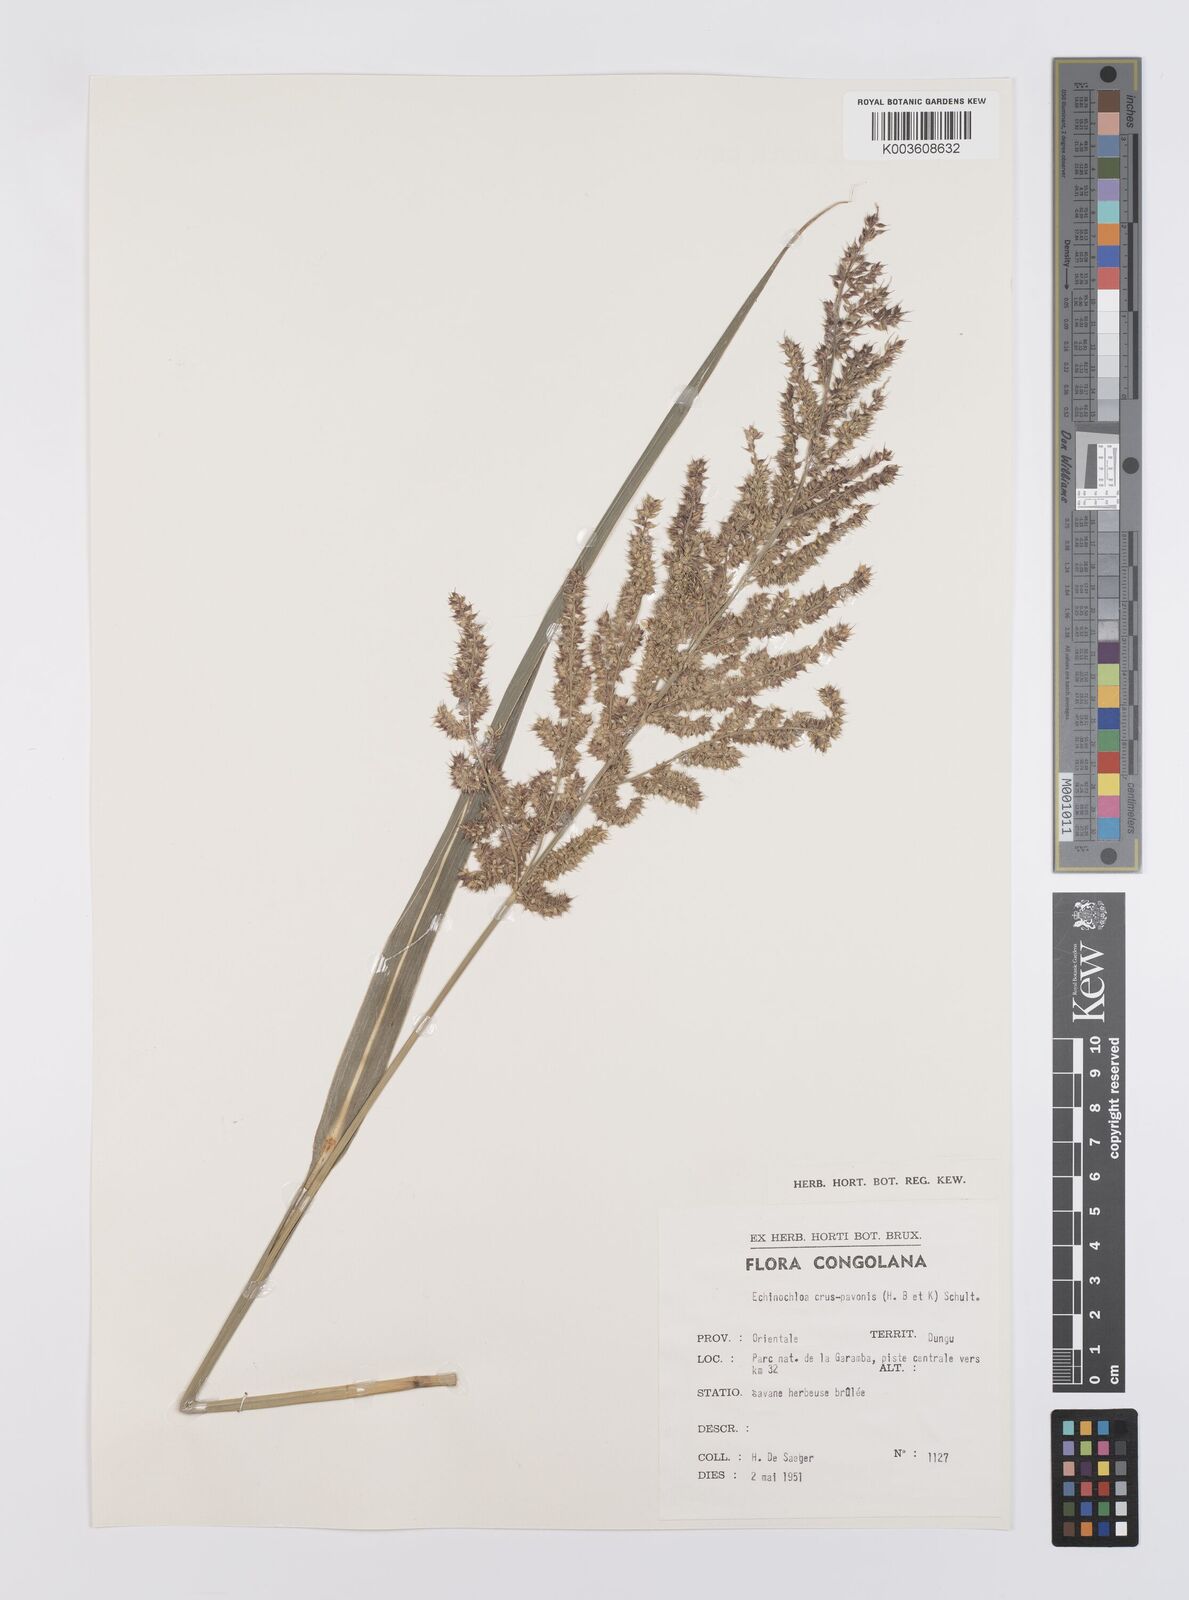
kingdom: Plantae
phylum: Tracheophyta
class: Liliopsida
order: Poales
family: Poaceae
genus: Echinochloa
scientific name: Echinochloa crus-pavonis
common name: Gulf cockspur grass
